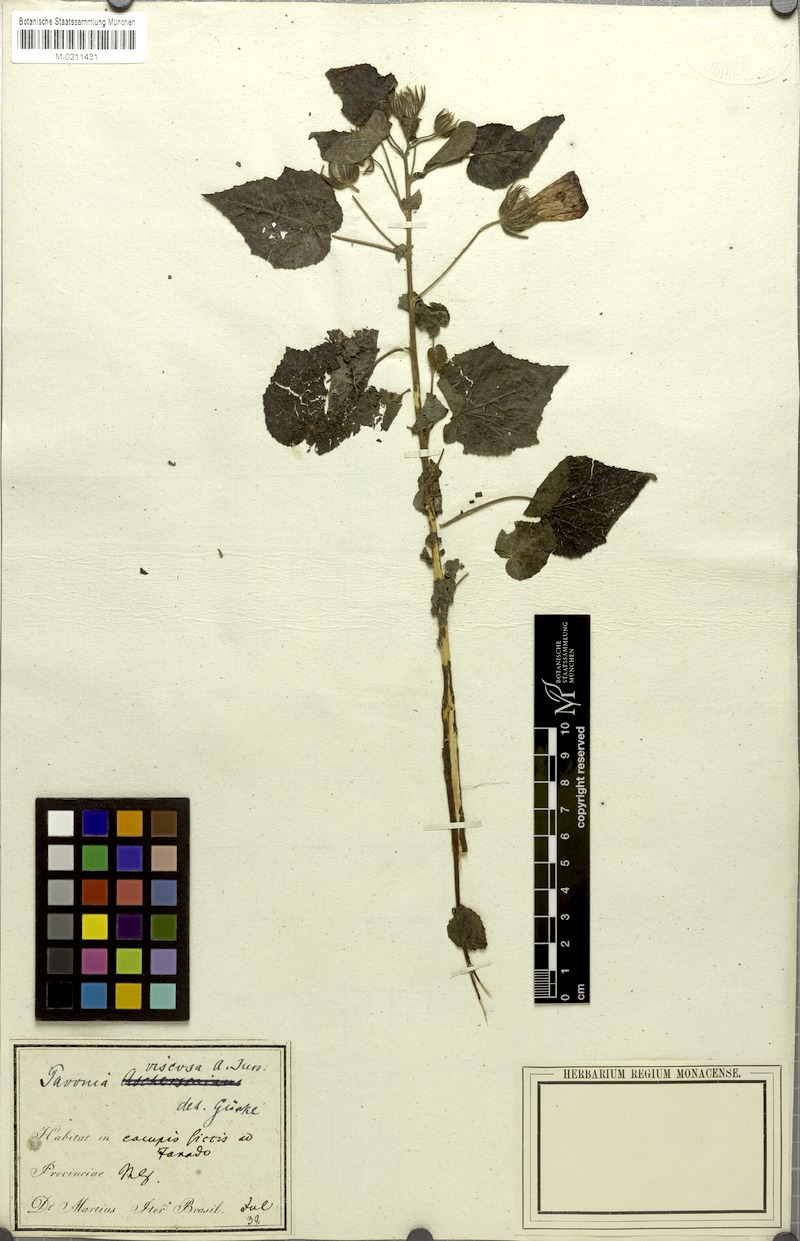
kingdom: Plantae
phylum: Tracheophyta
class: Magnoliopsida
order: Malvales
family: Malvaceae
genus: Pavonia
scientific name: Pavonia viscosa
